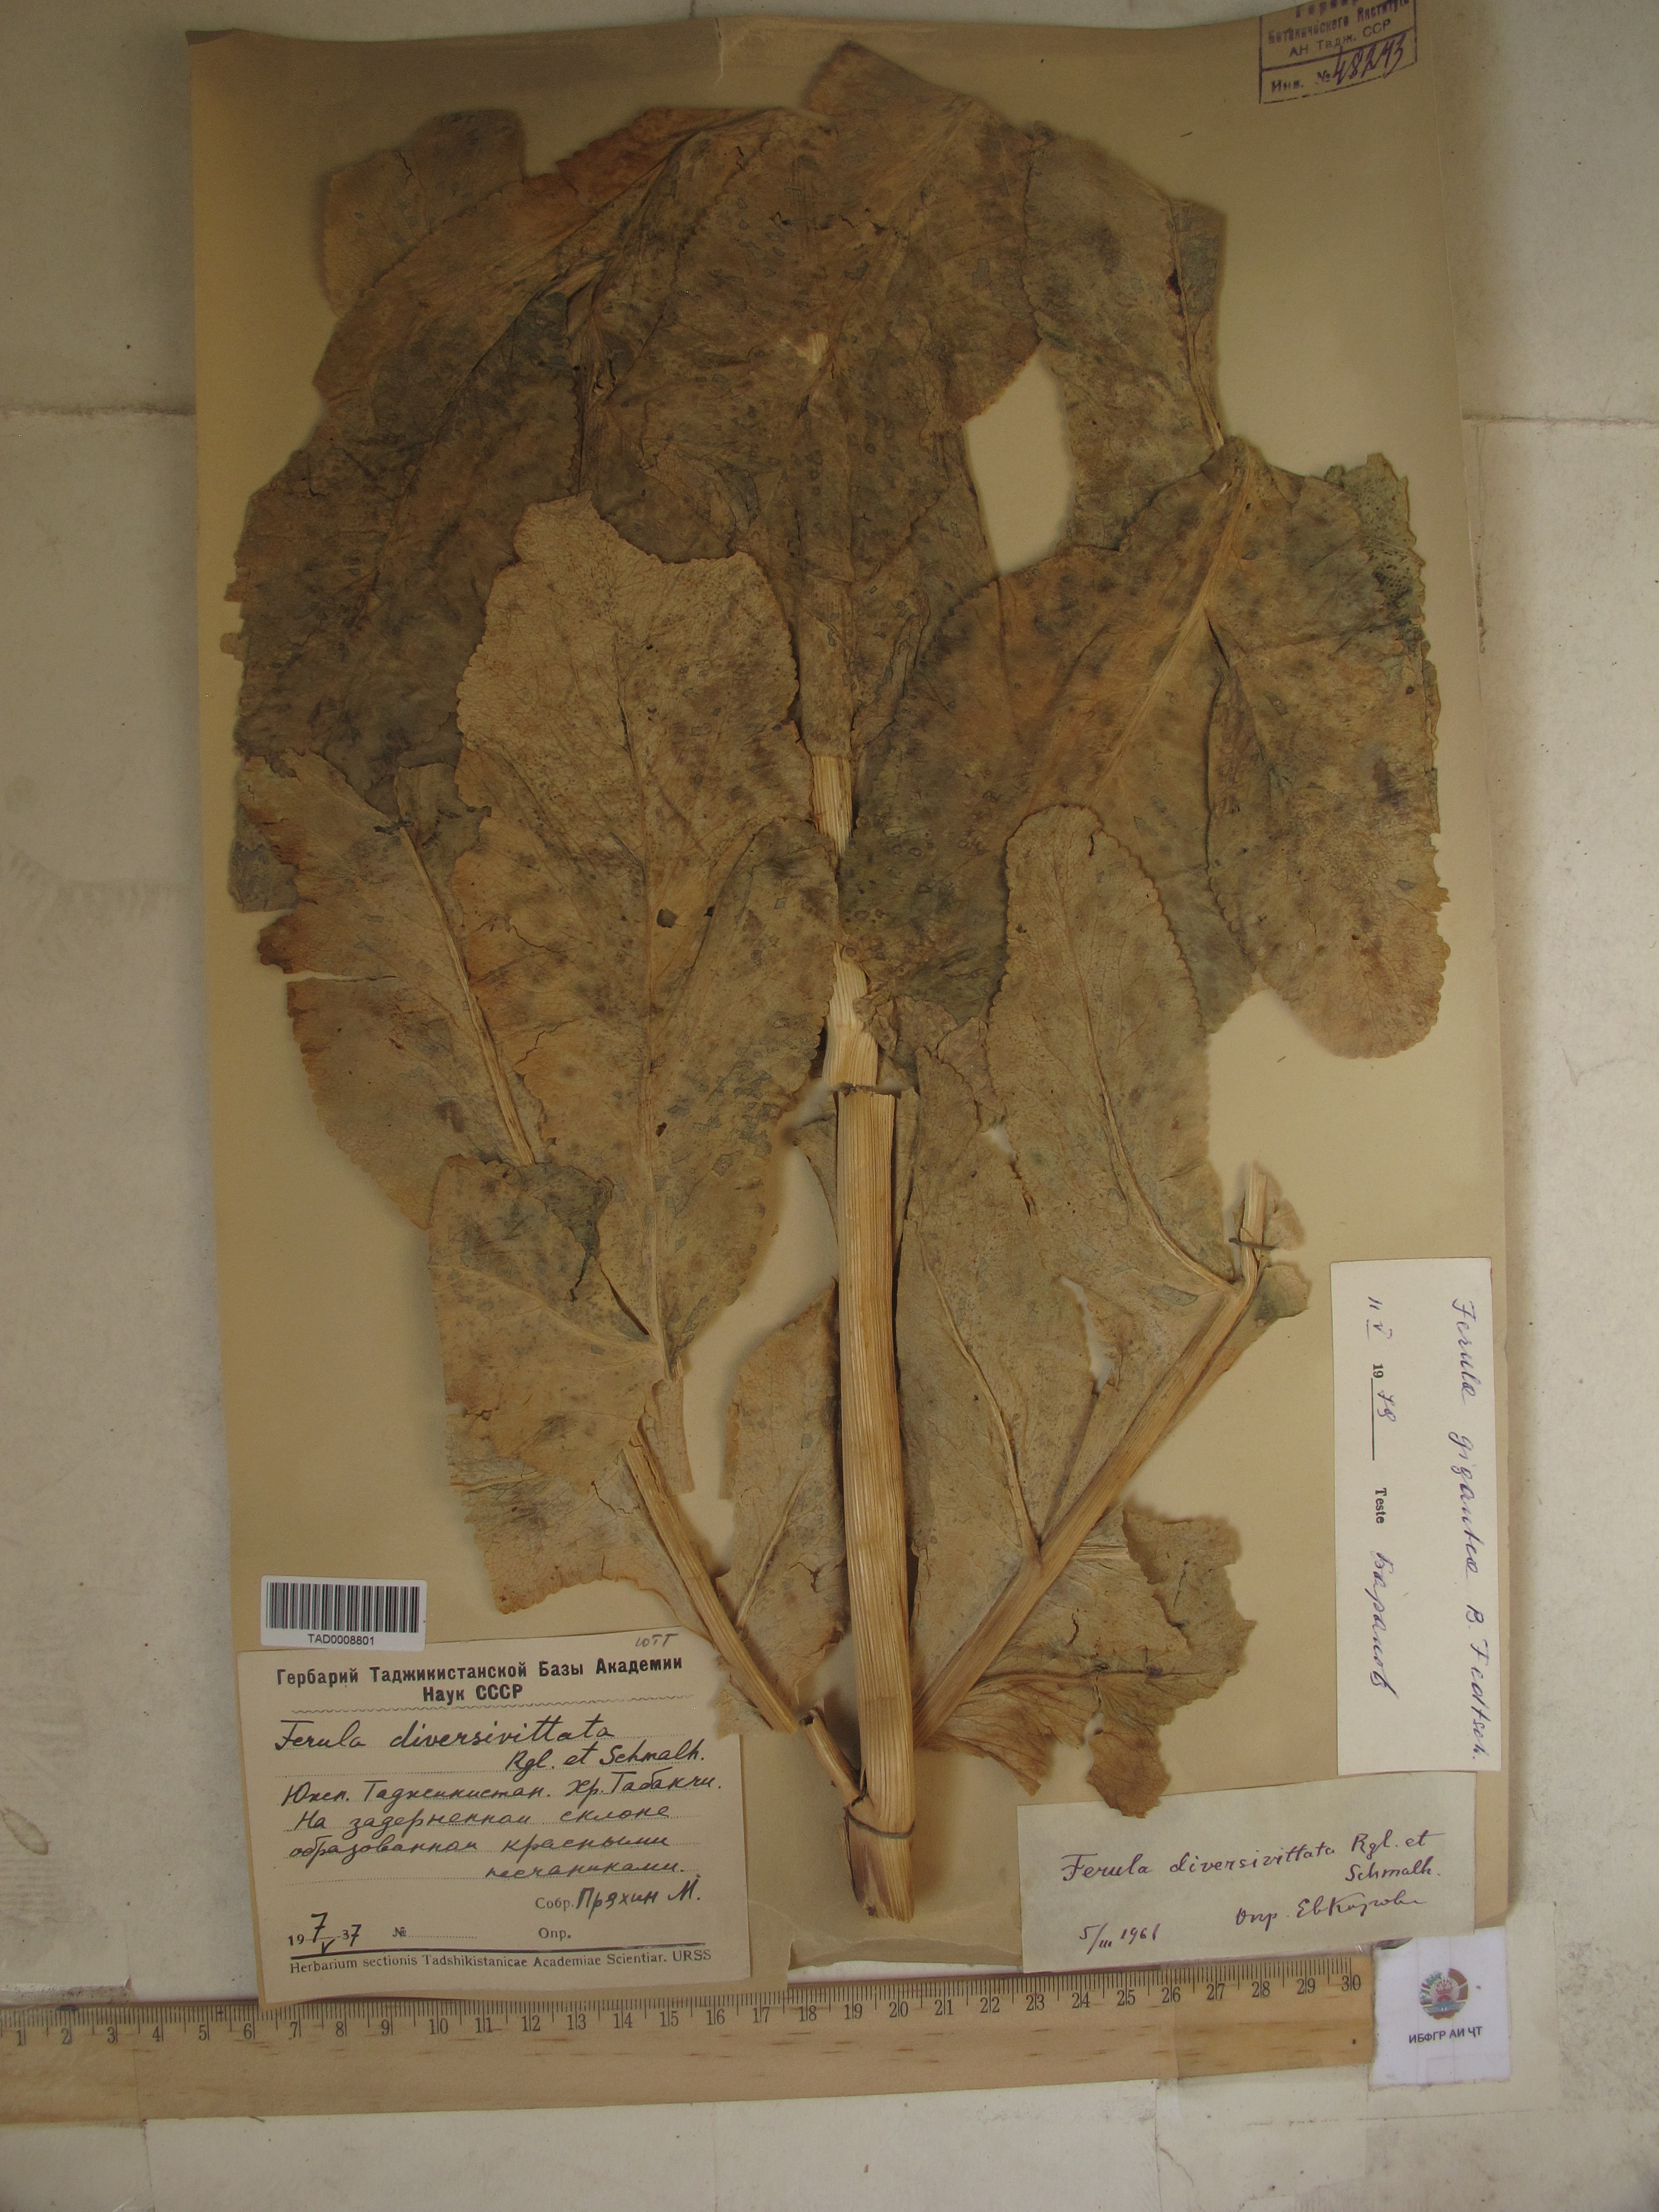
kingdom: Plantae
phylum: Tracheophyta
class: Magnoliopsida
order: Apiales
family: Apiaceae
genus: Ferula
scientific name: Ferula gigantea
